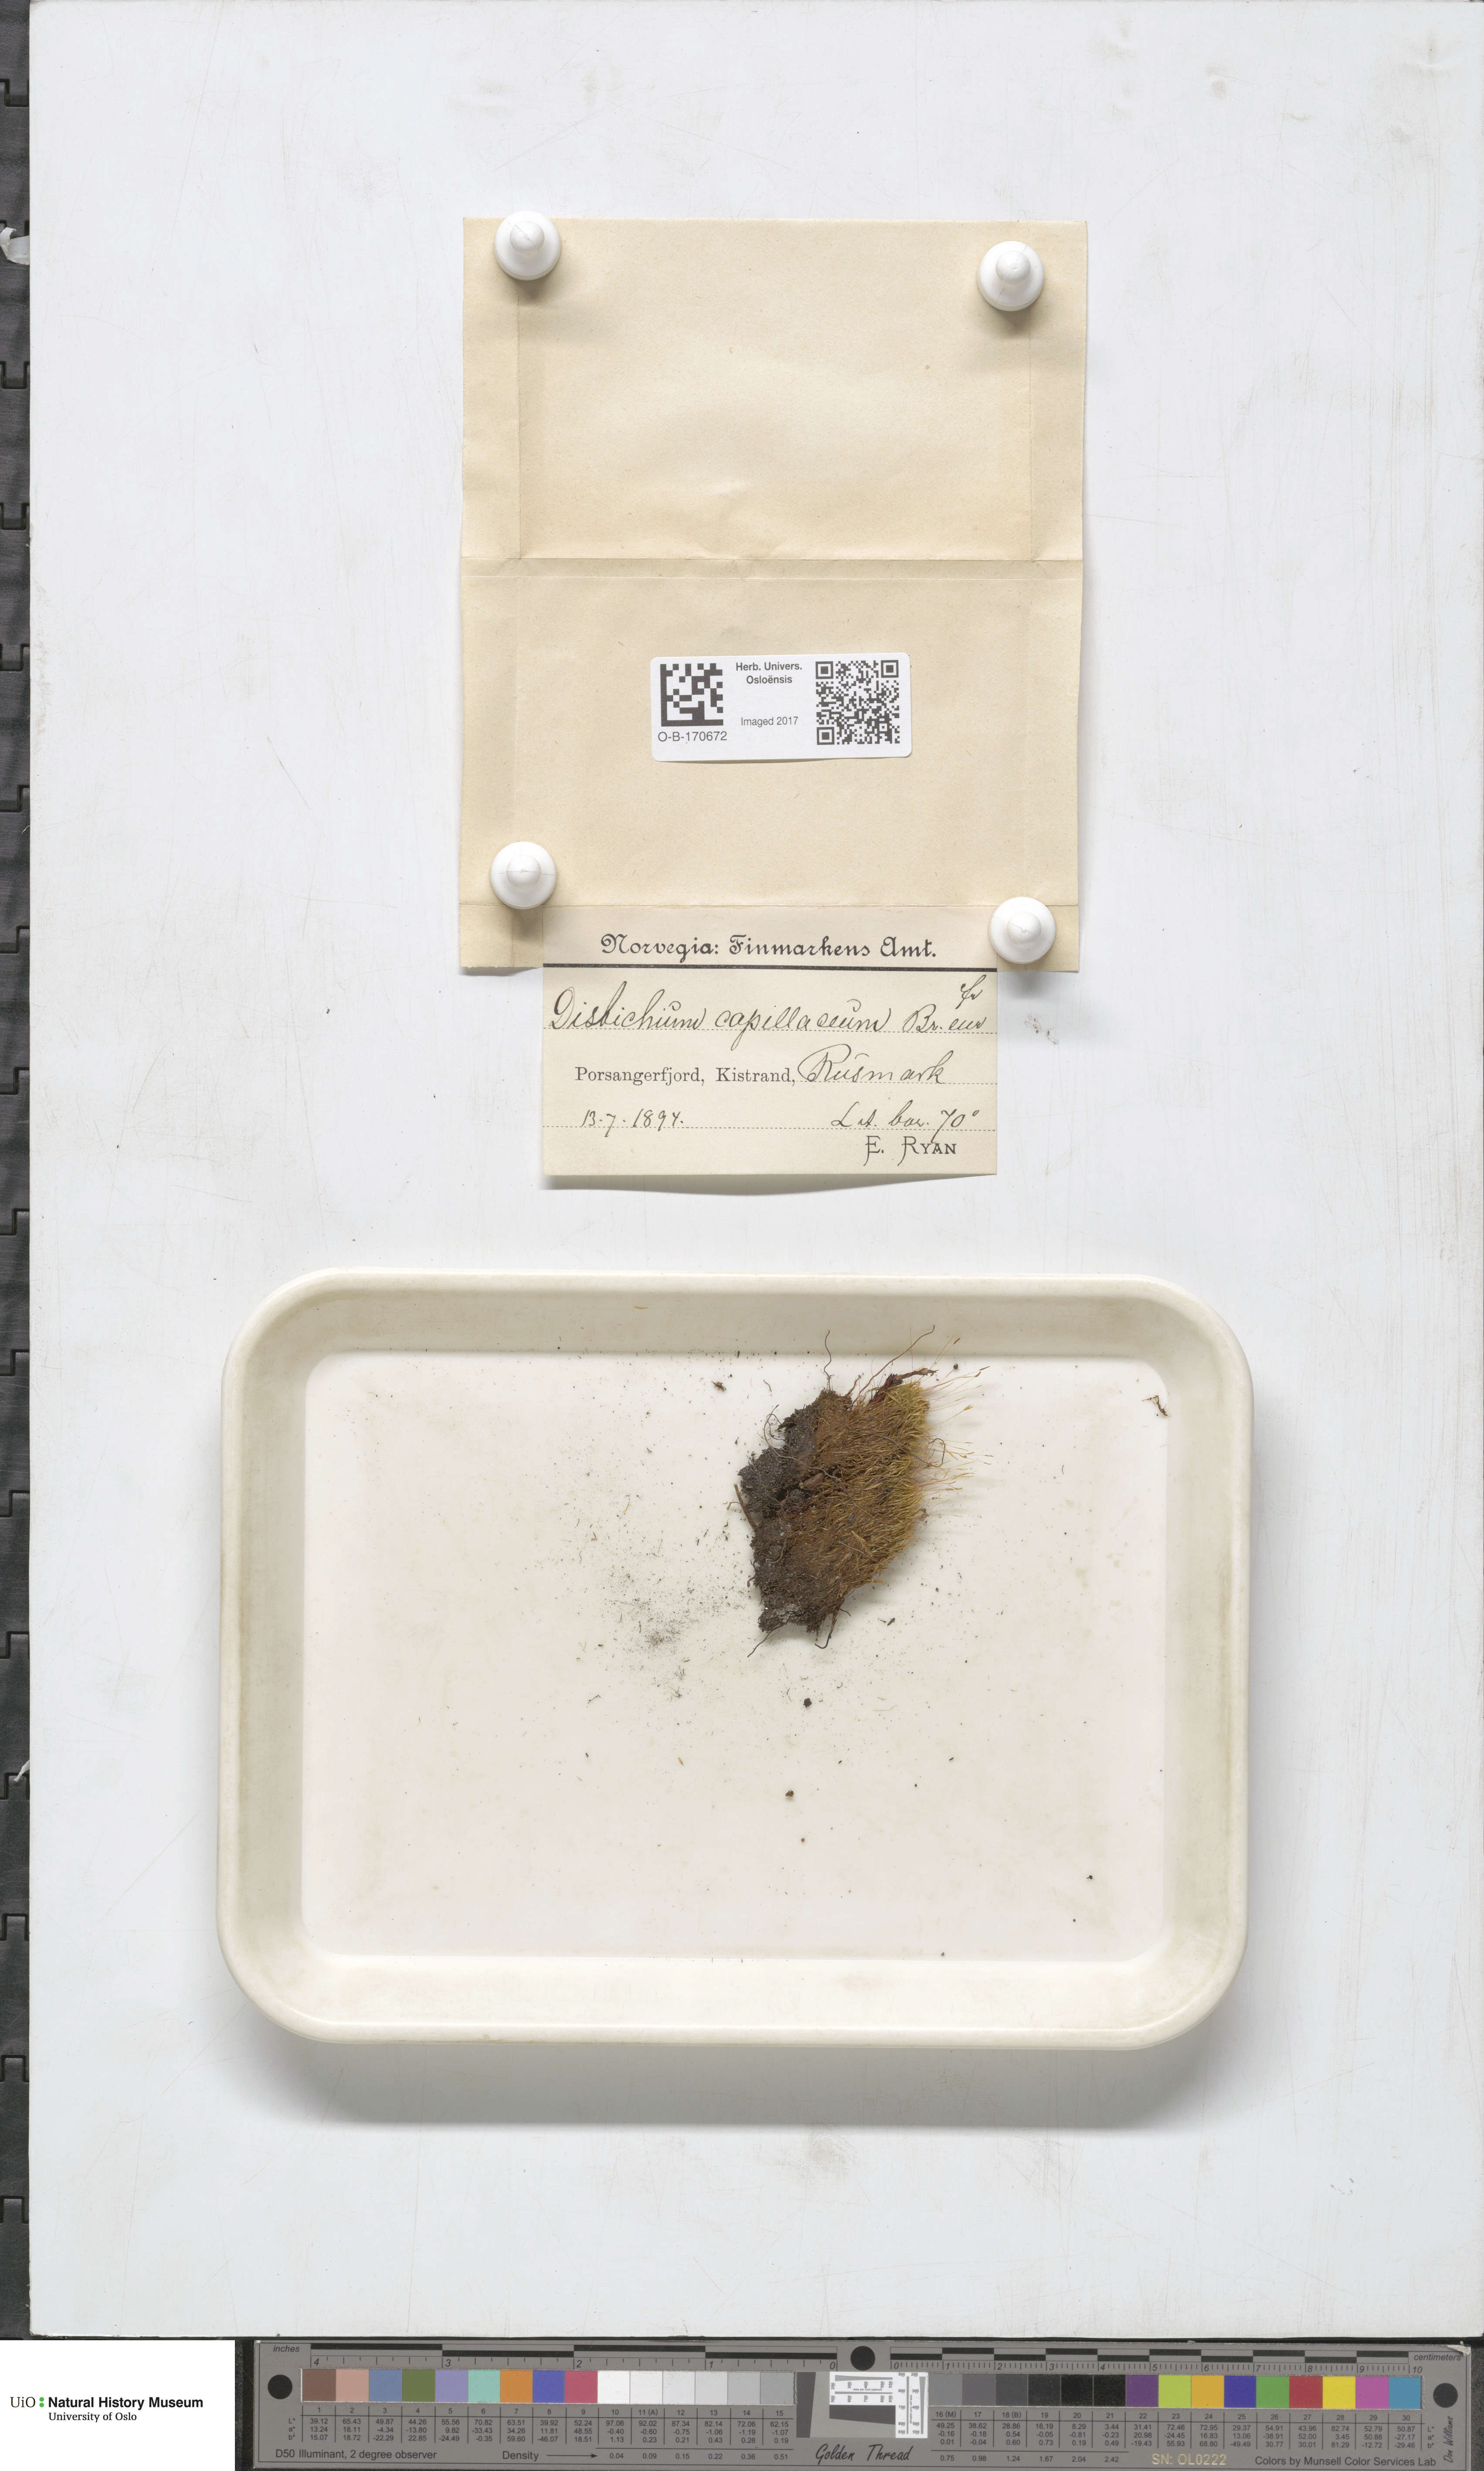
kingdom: Plantae
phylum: Bryophyta
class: Bryopsida
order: Scouleriales
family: Distichiaceae
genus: Distichium
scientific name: Distichium capillaceum
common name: Erect-fruited iris moss
